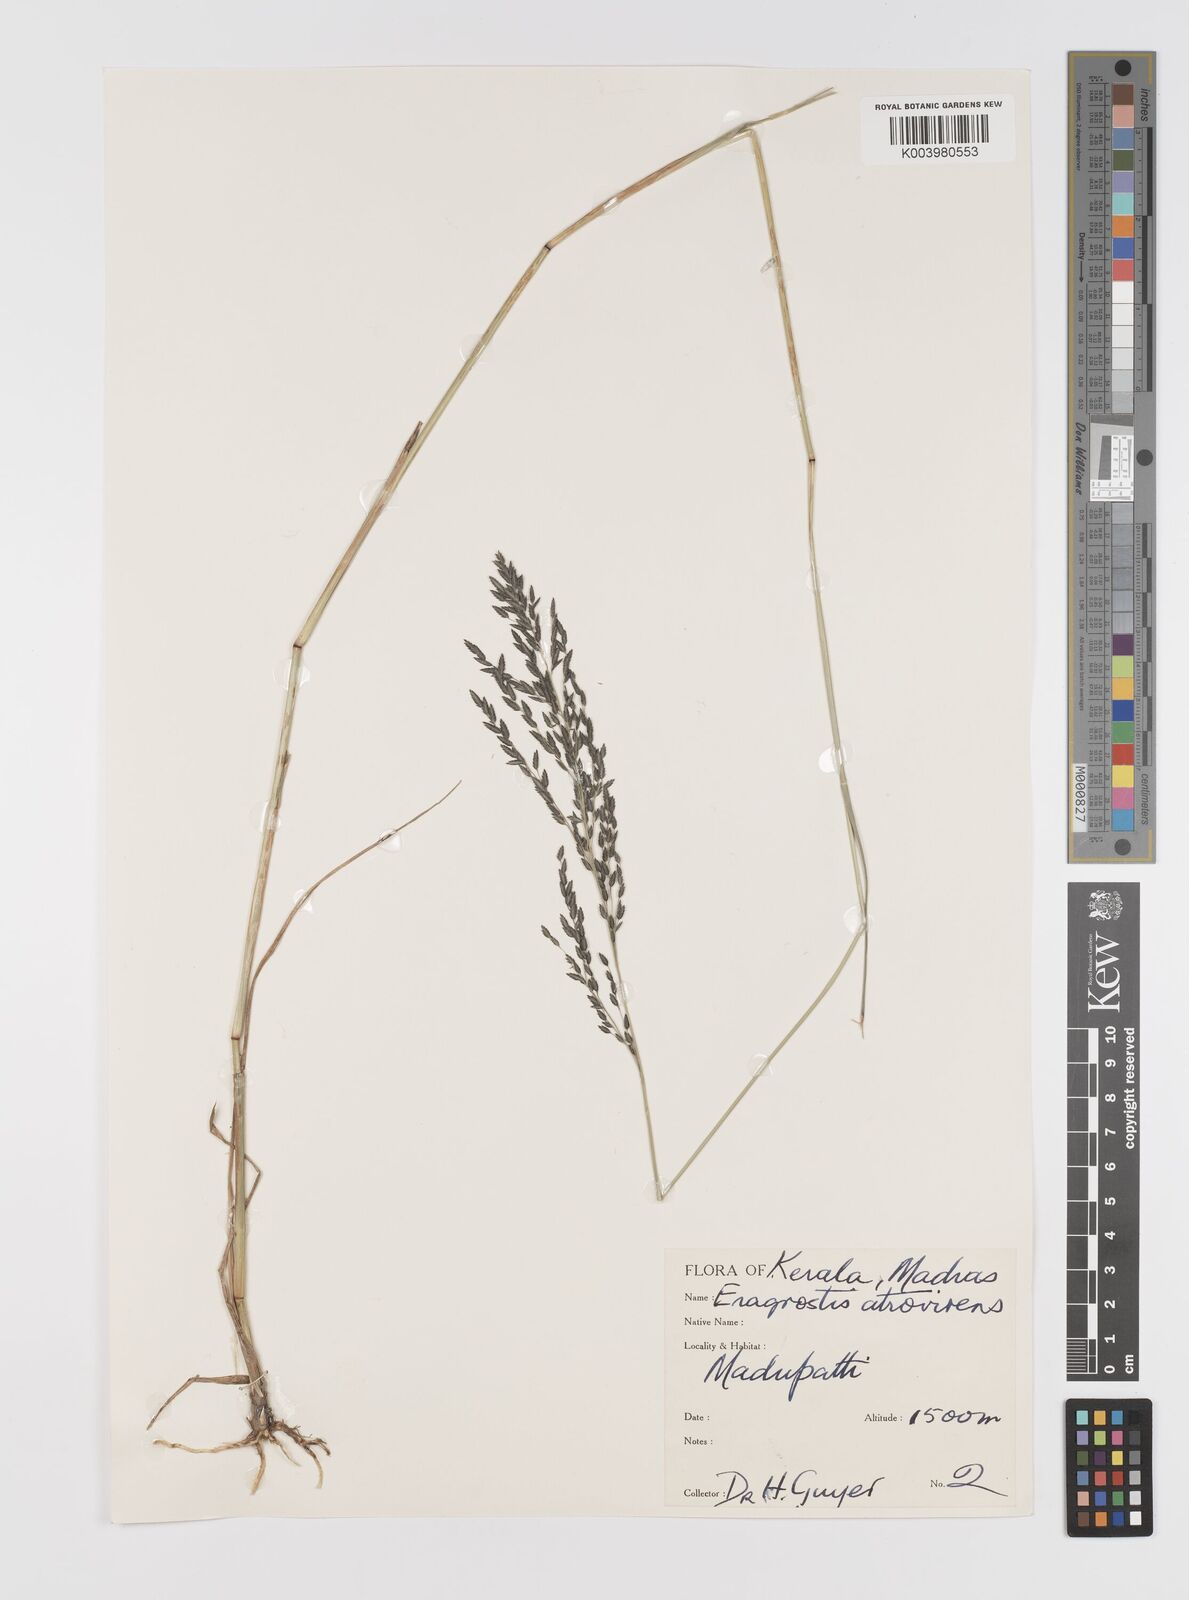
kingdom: Plantae
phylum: Tracheophyta
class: Liliopsida
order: Poales
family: Poaceae
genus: Eragrostis
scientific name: Eragrostis
